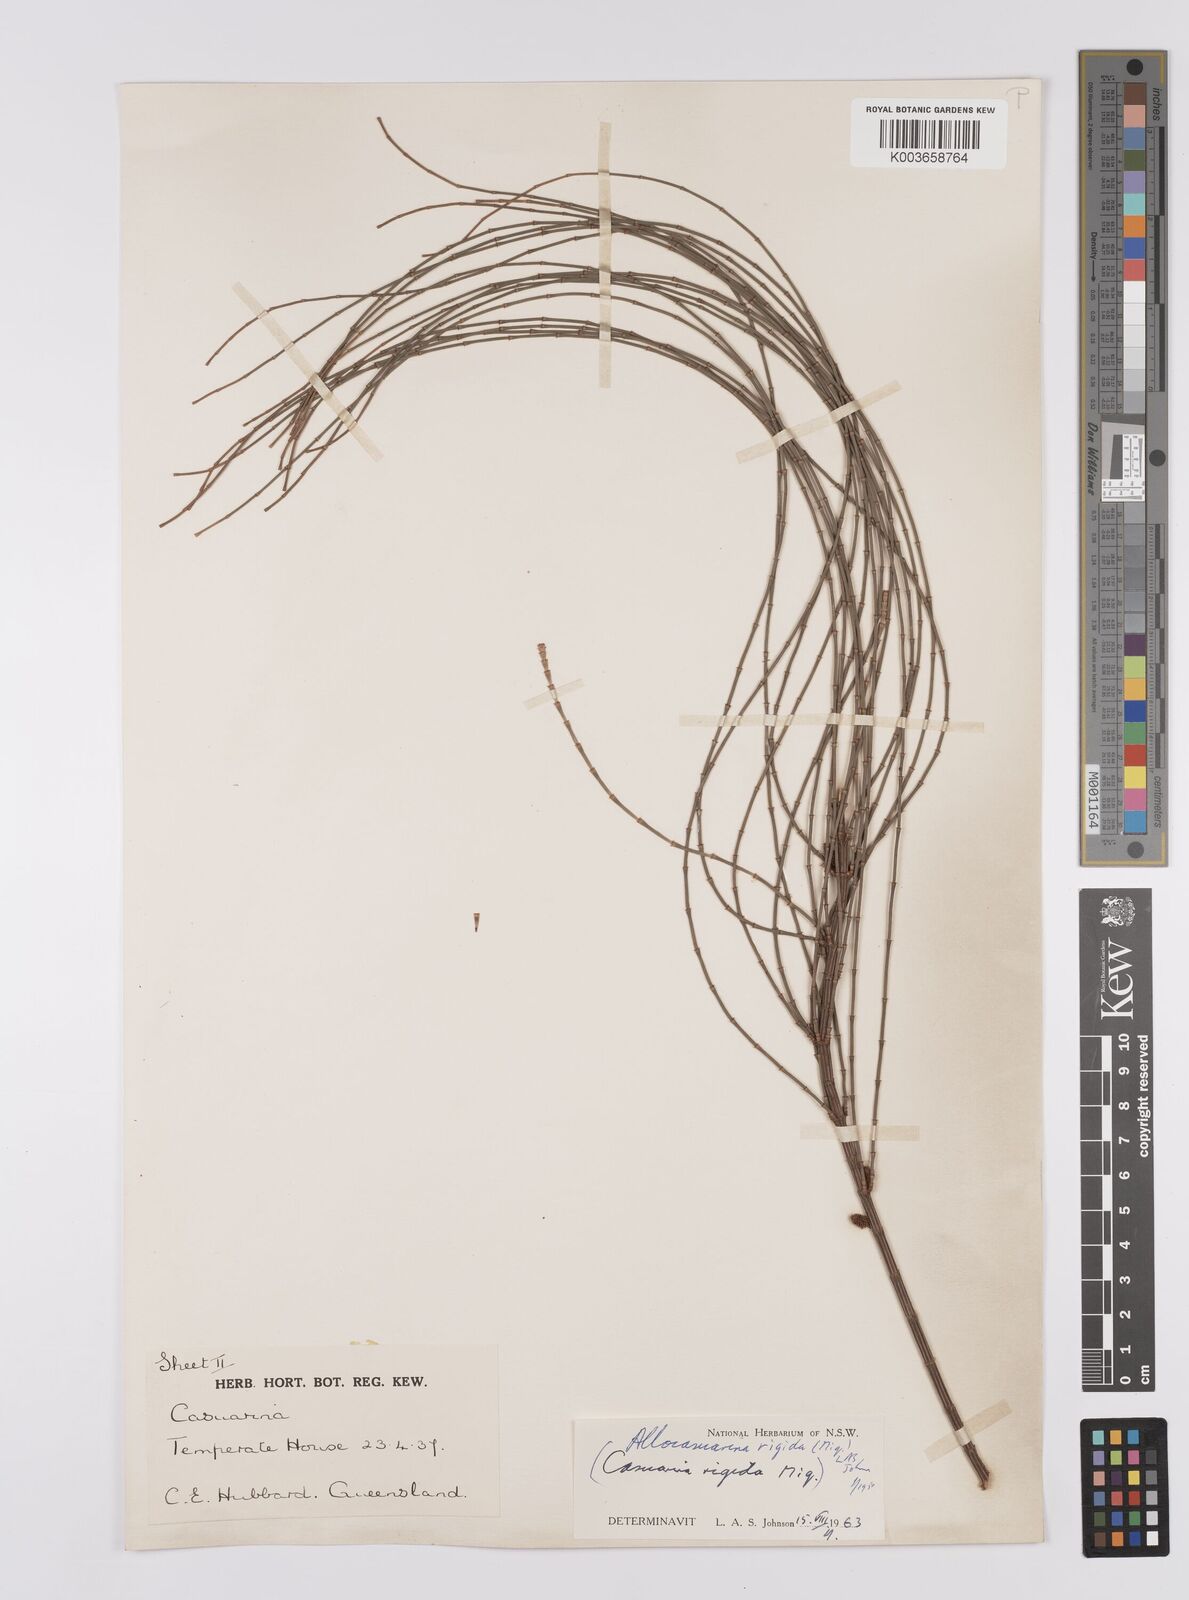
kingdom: Plantae
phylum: Tracheophyta
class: Magnoliopsida
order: Fagales
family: Casuarinaceae
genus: Allocasuarina
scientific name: Allocasuarina rigida
